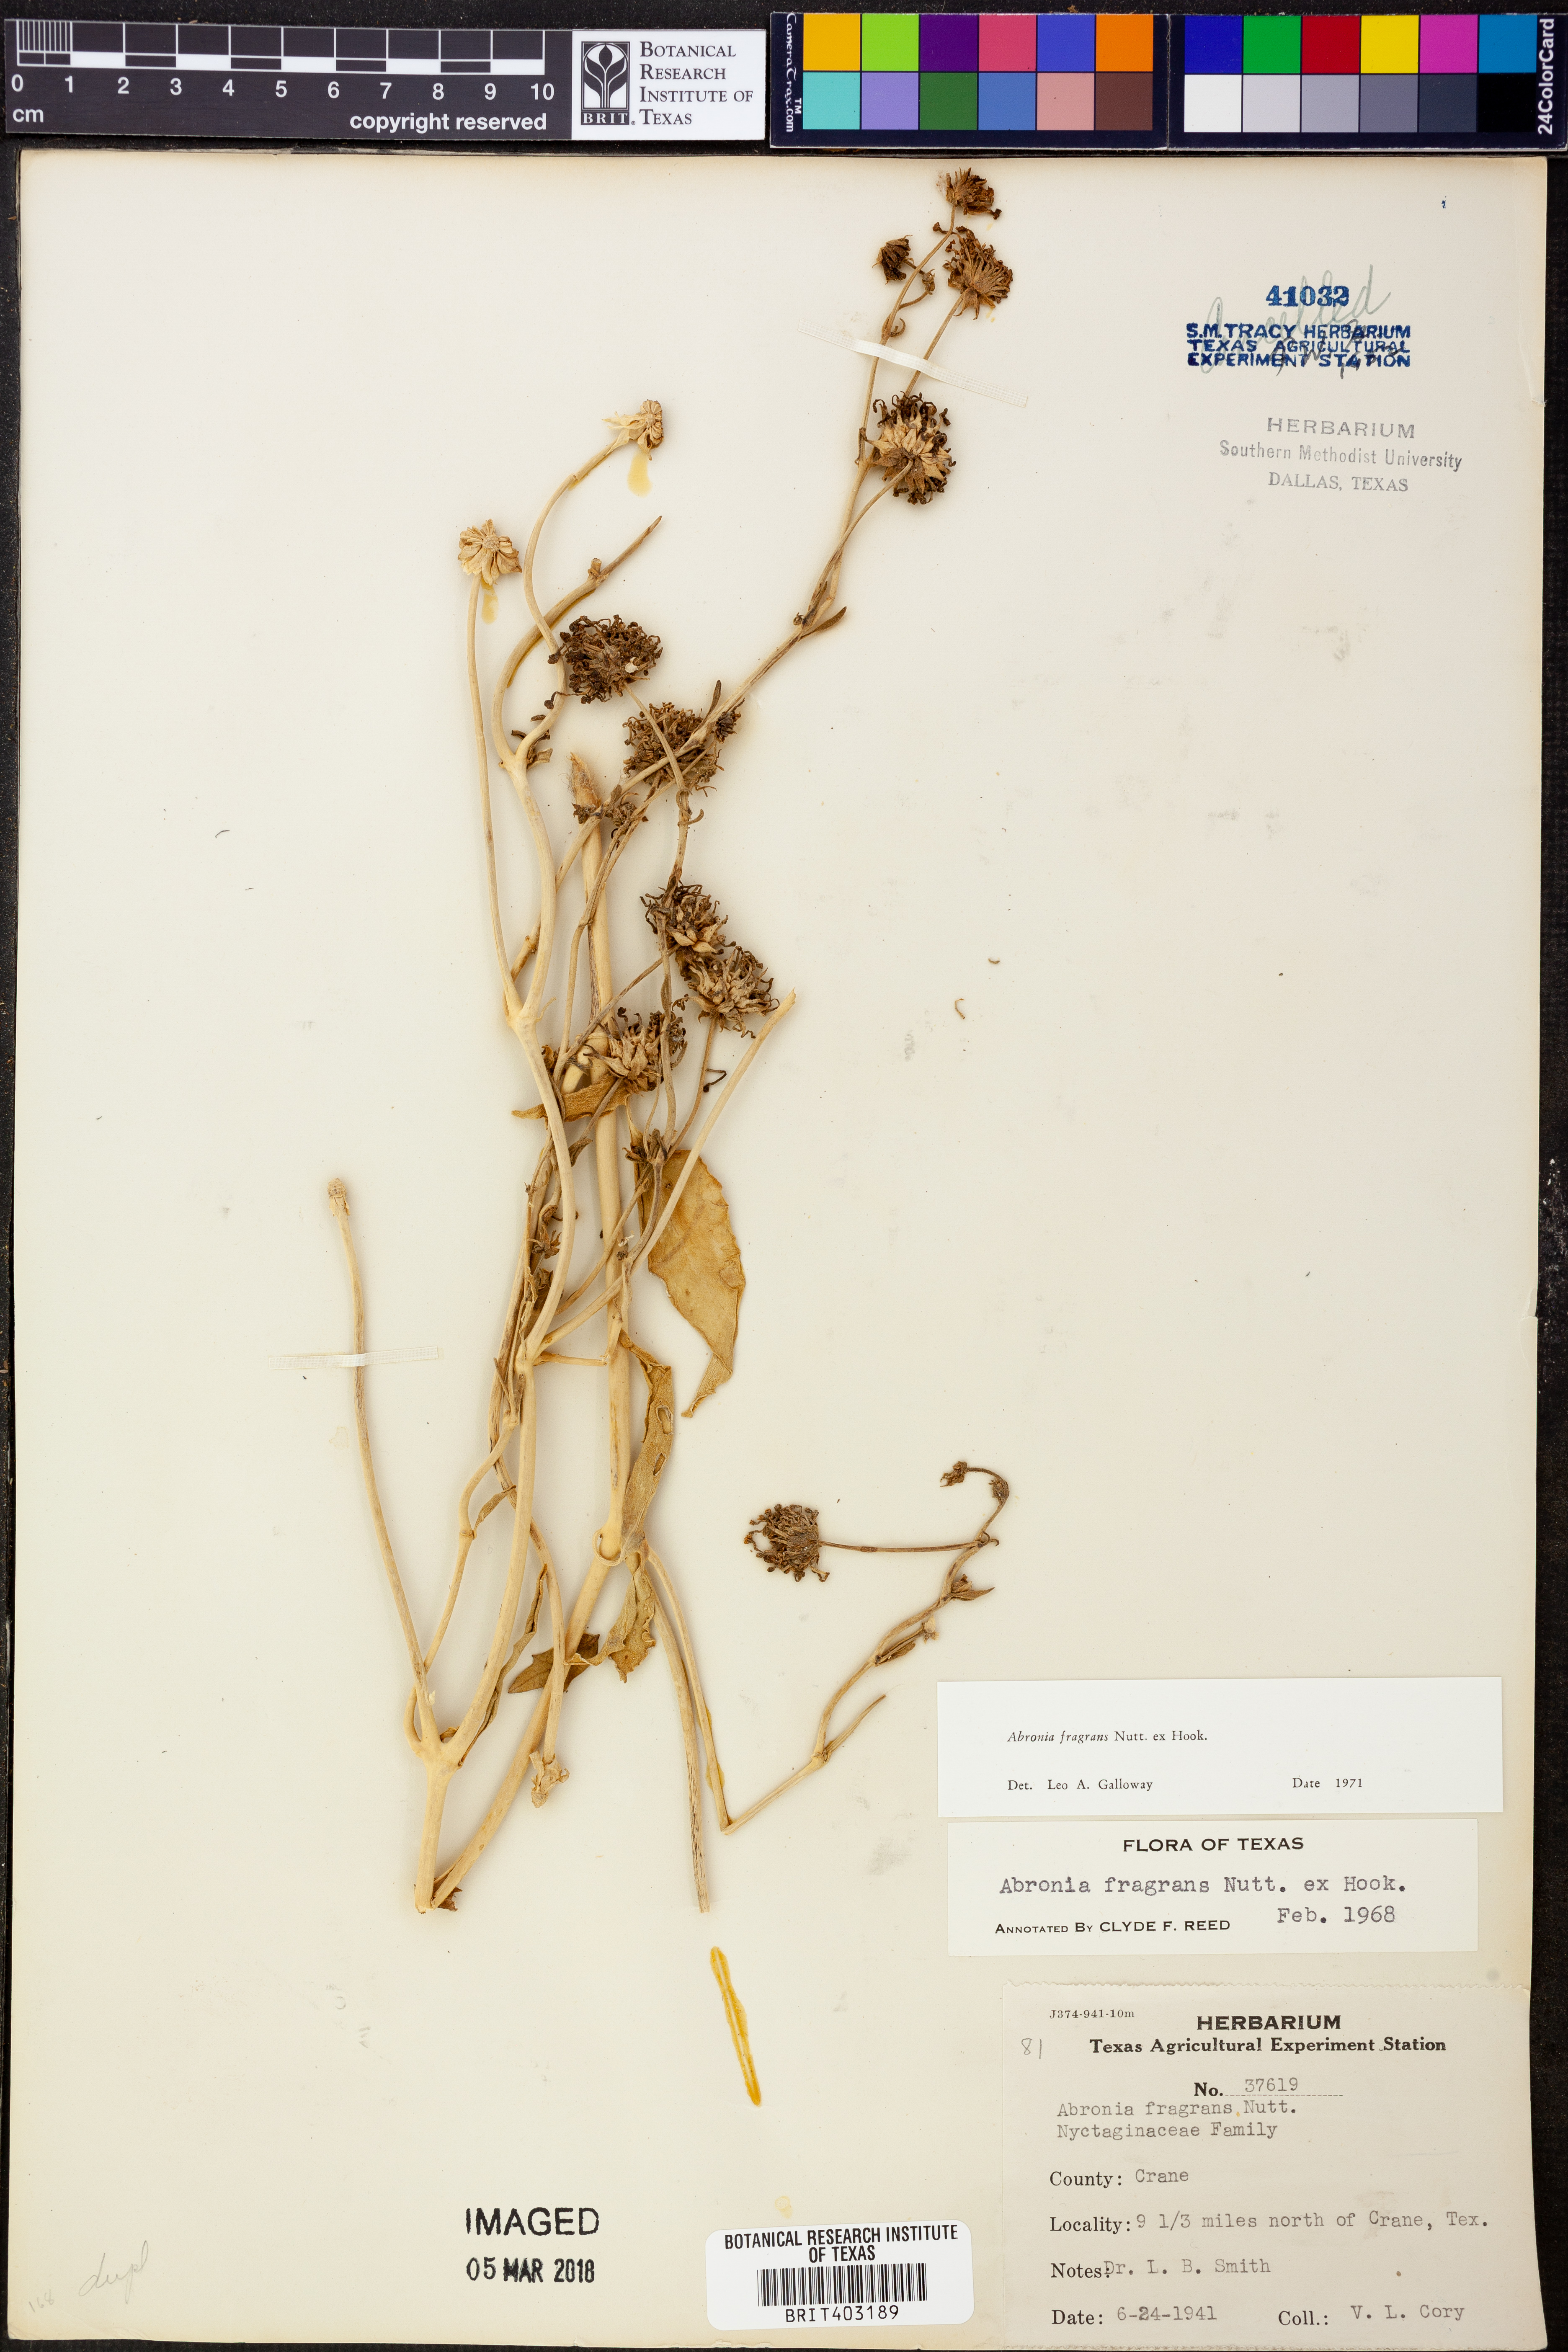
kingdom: Plantae
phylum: Tracheophyta
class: Magnoliopsida
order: Caryophyllales
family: Nyctaginaceae
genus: Abronia
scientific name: Abronia fragrans
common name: Fragrant sand-verbena
